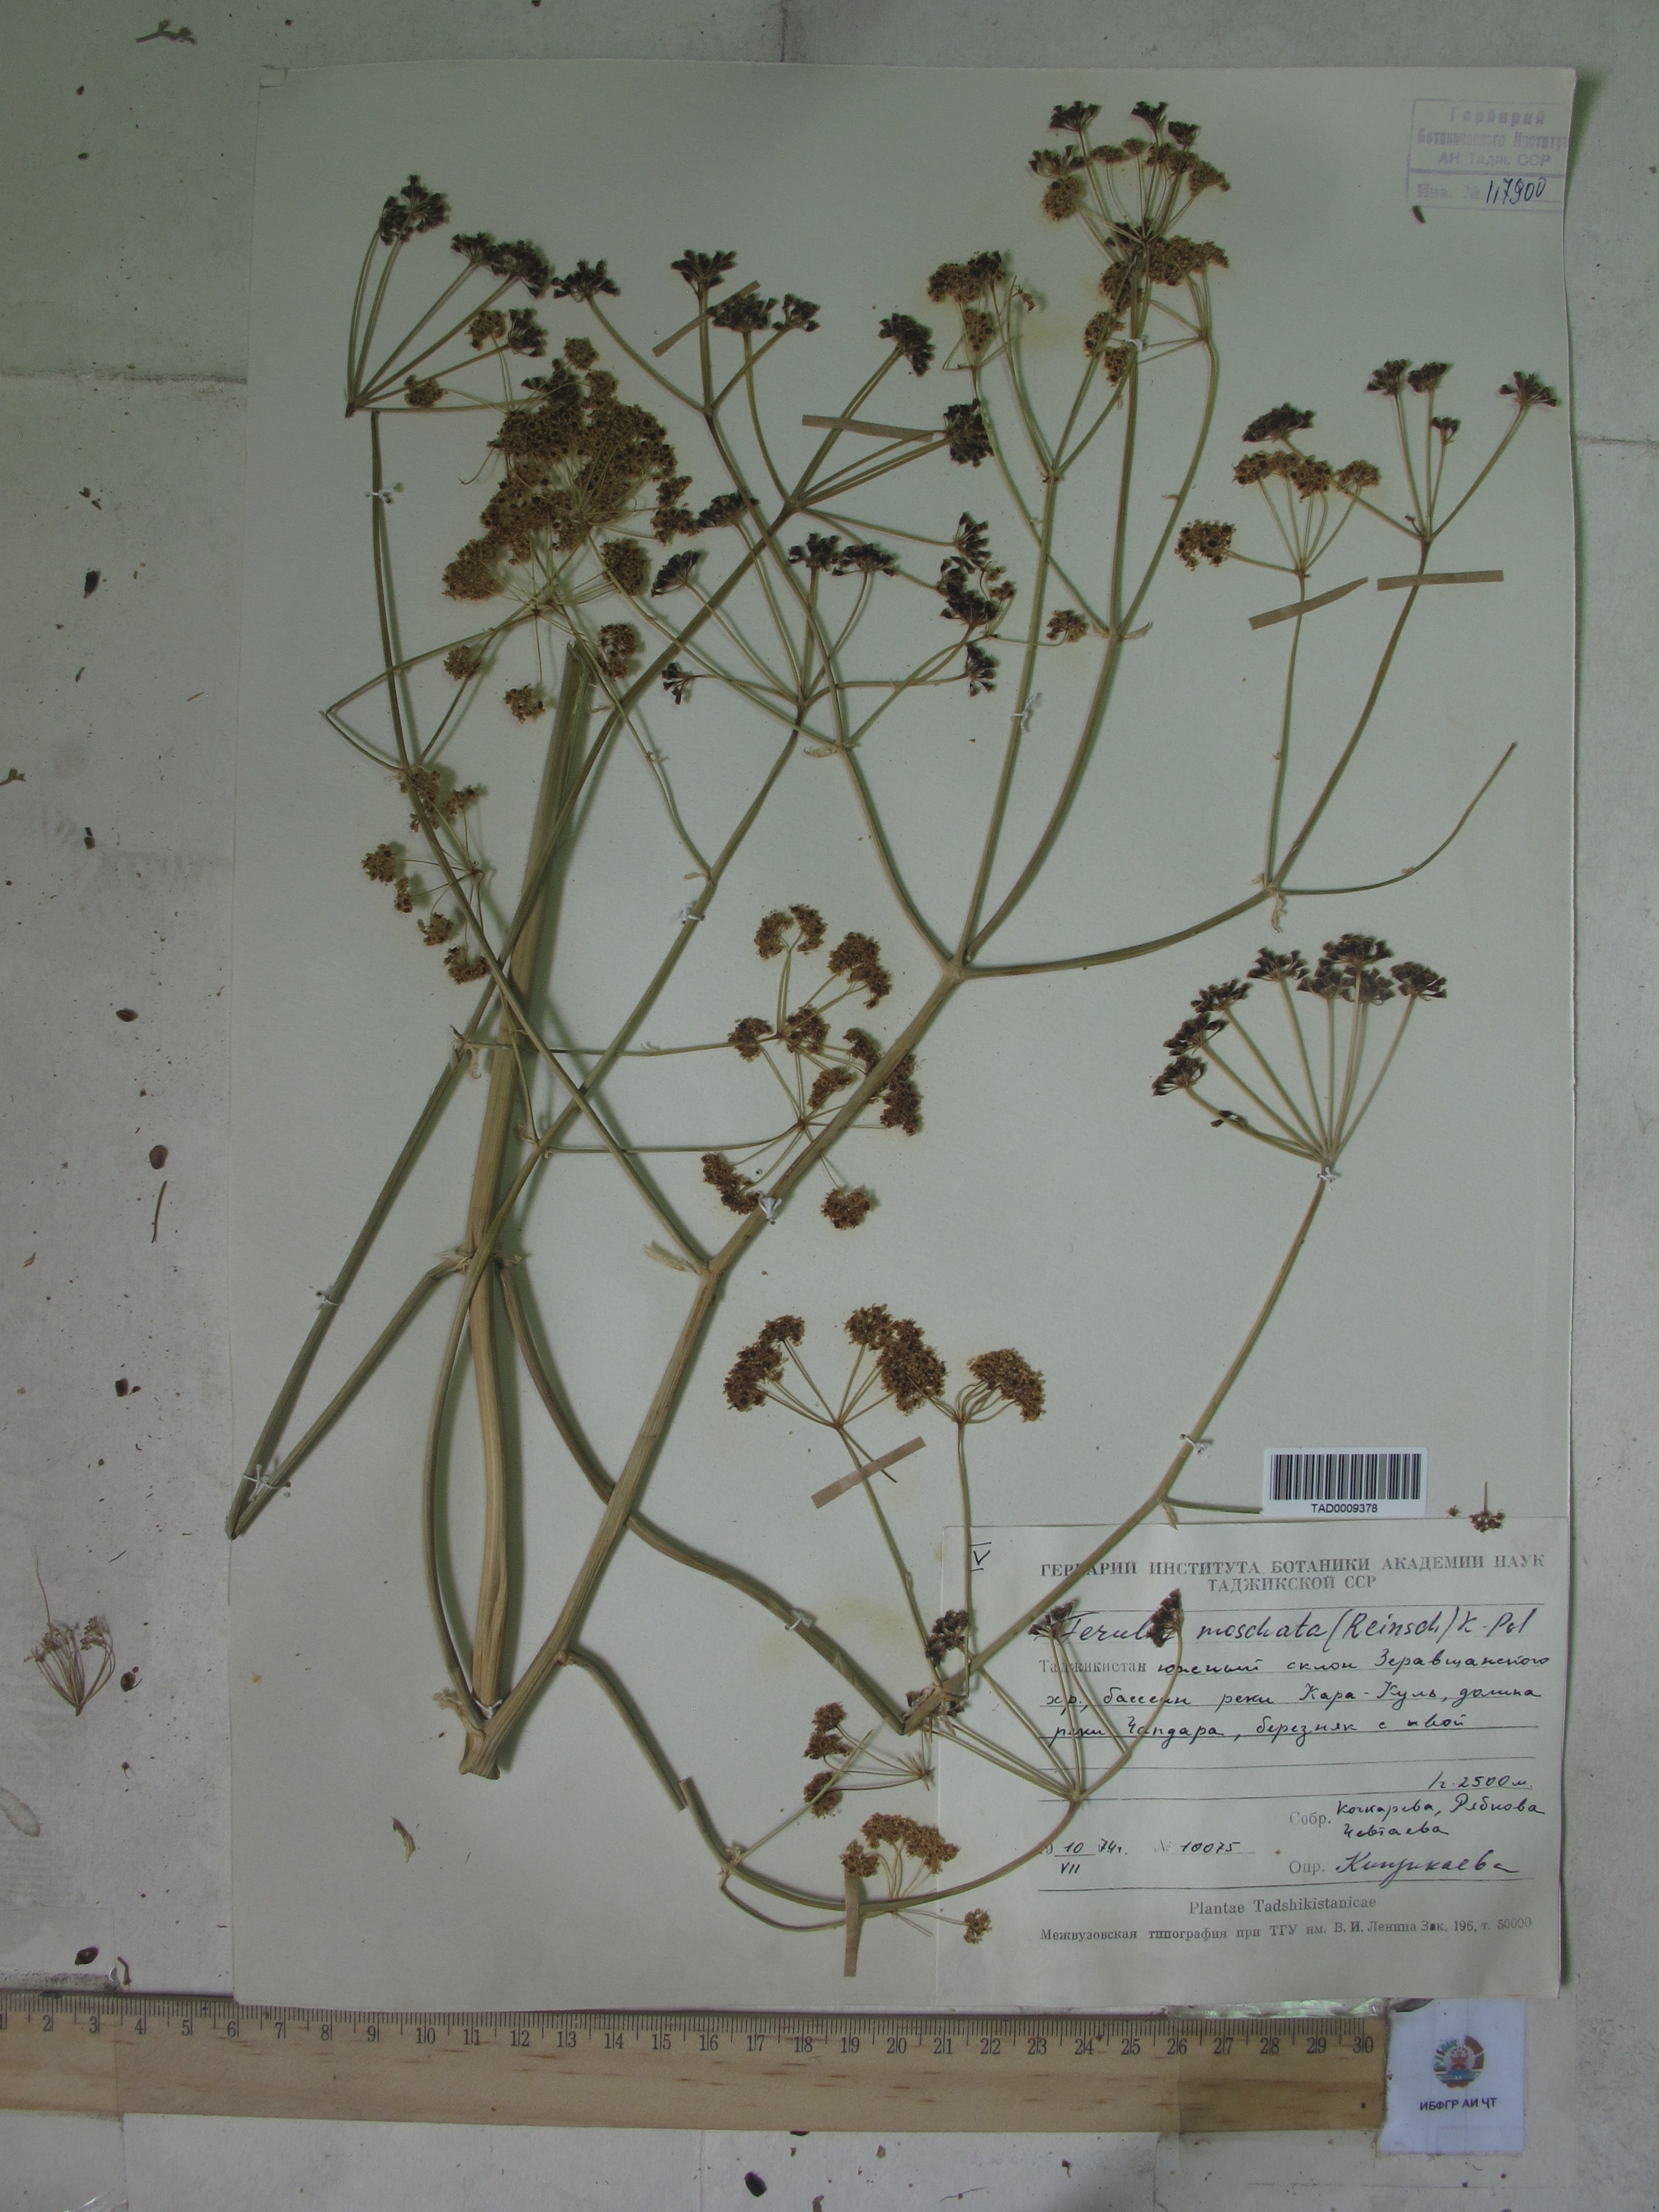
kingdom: Plantae
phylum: Tracheophyta
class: Magnoliopsida
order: Apiales
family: Apiaceae
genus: Ferula
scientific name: Ferula samarkandica
